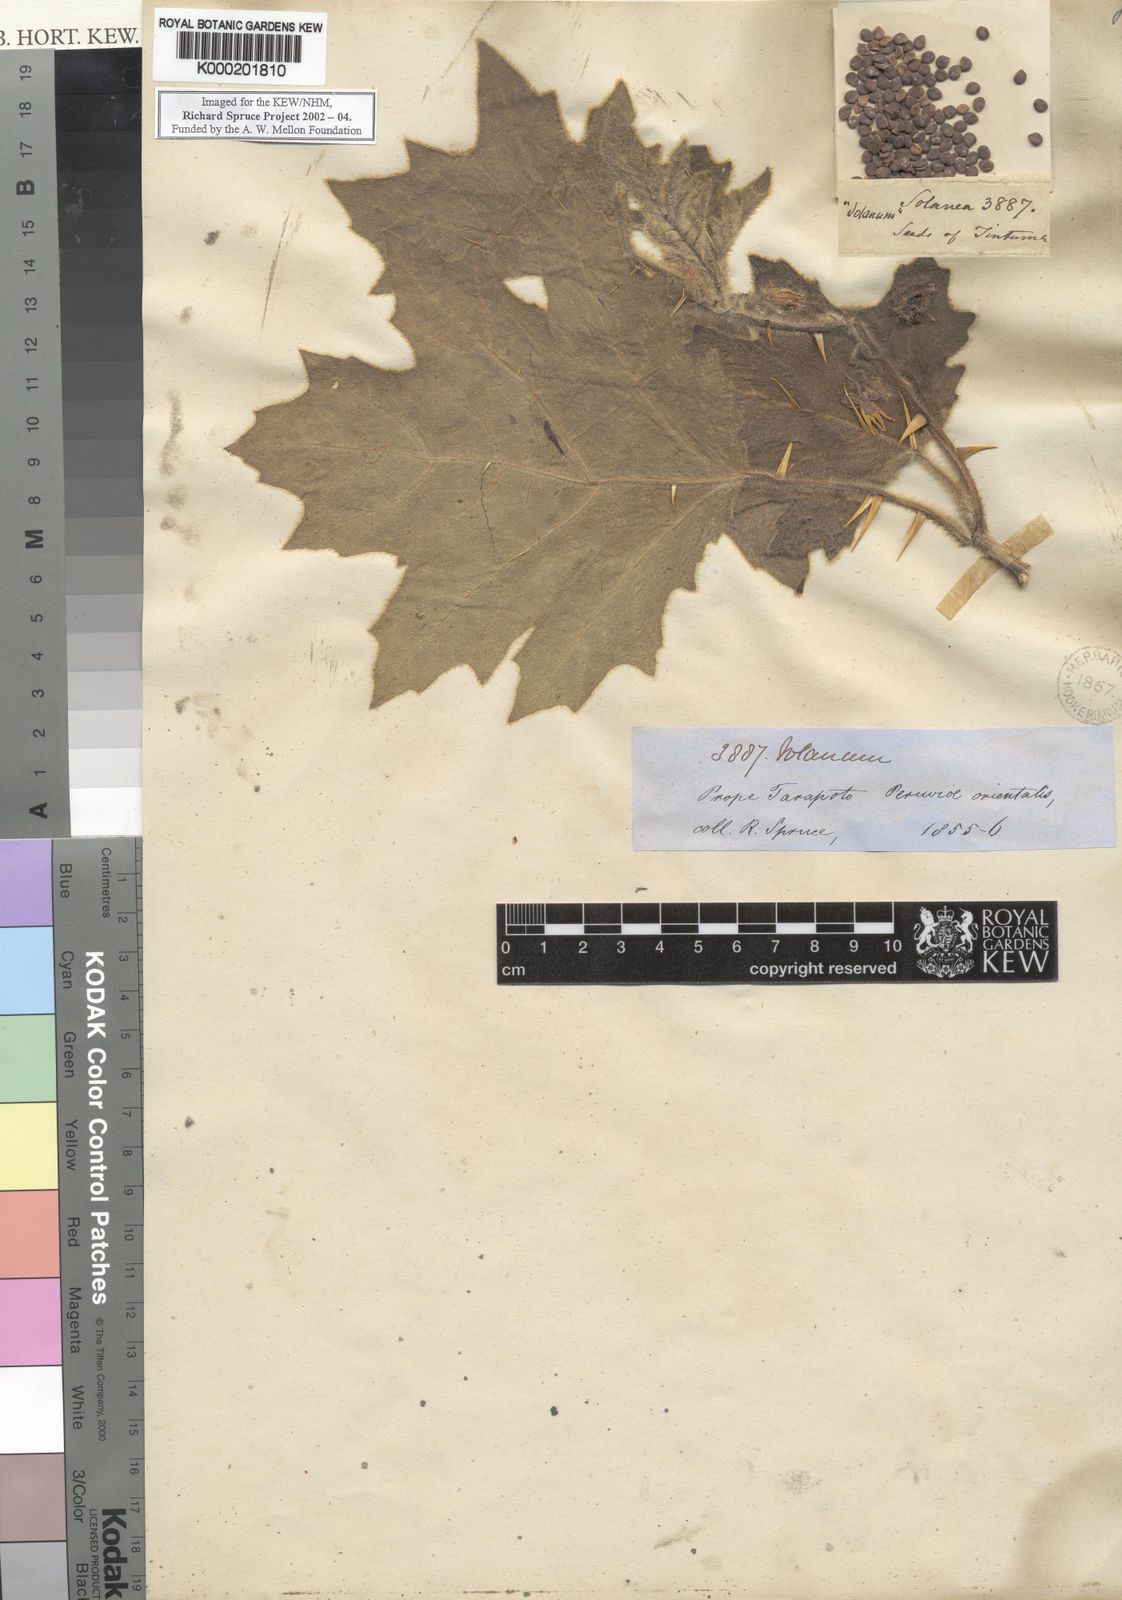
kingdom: Plantae
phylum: Tracheophyta
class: Magnoliopsida
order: Solanales
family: Solanaceae
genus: Solanum
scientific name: Solanum mammosum
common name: Nipple fruit
